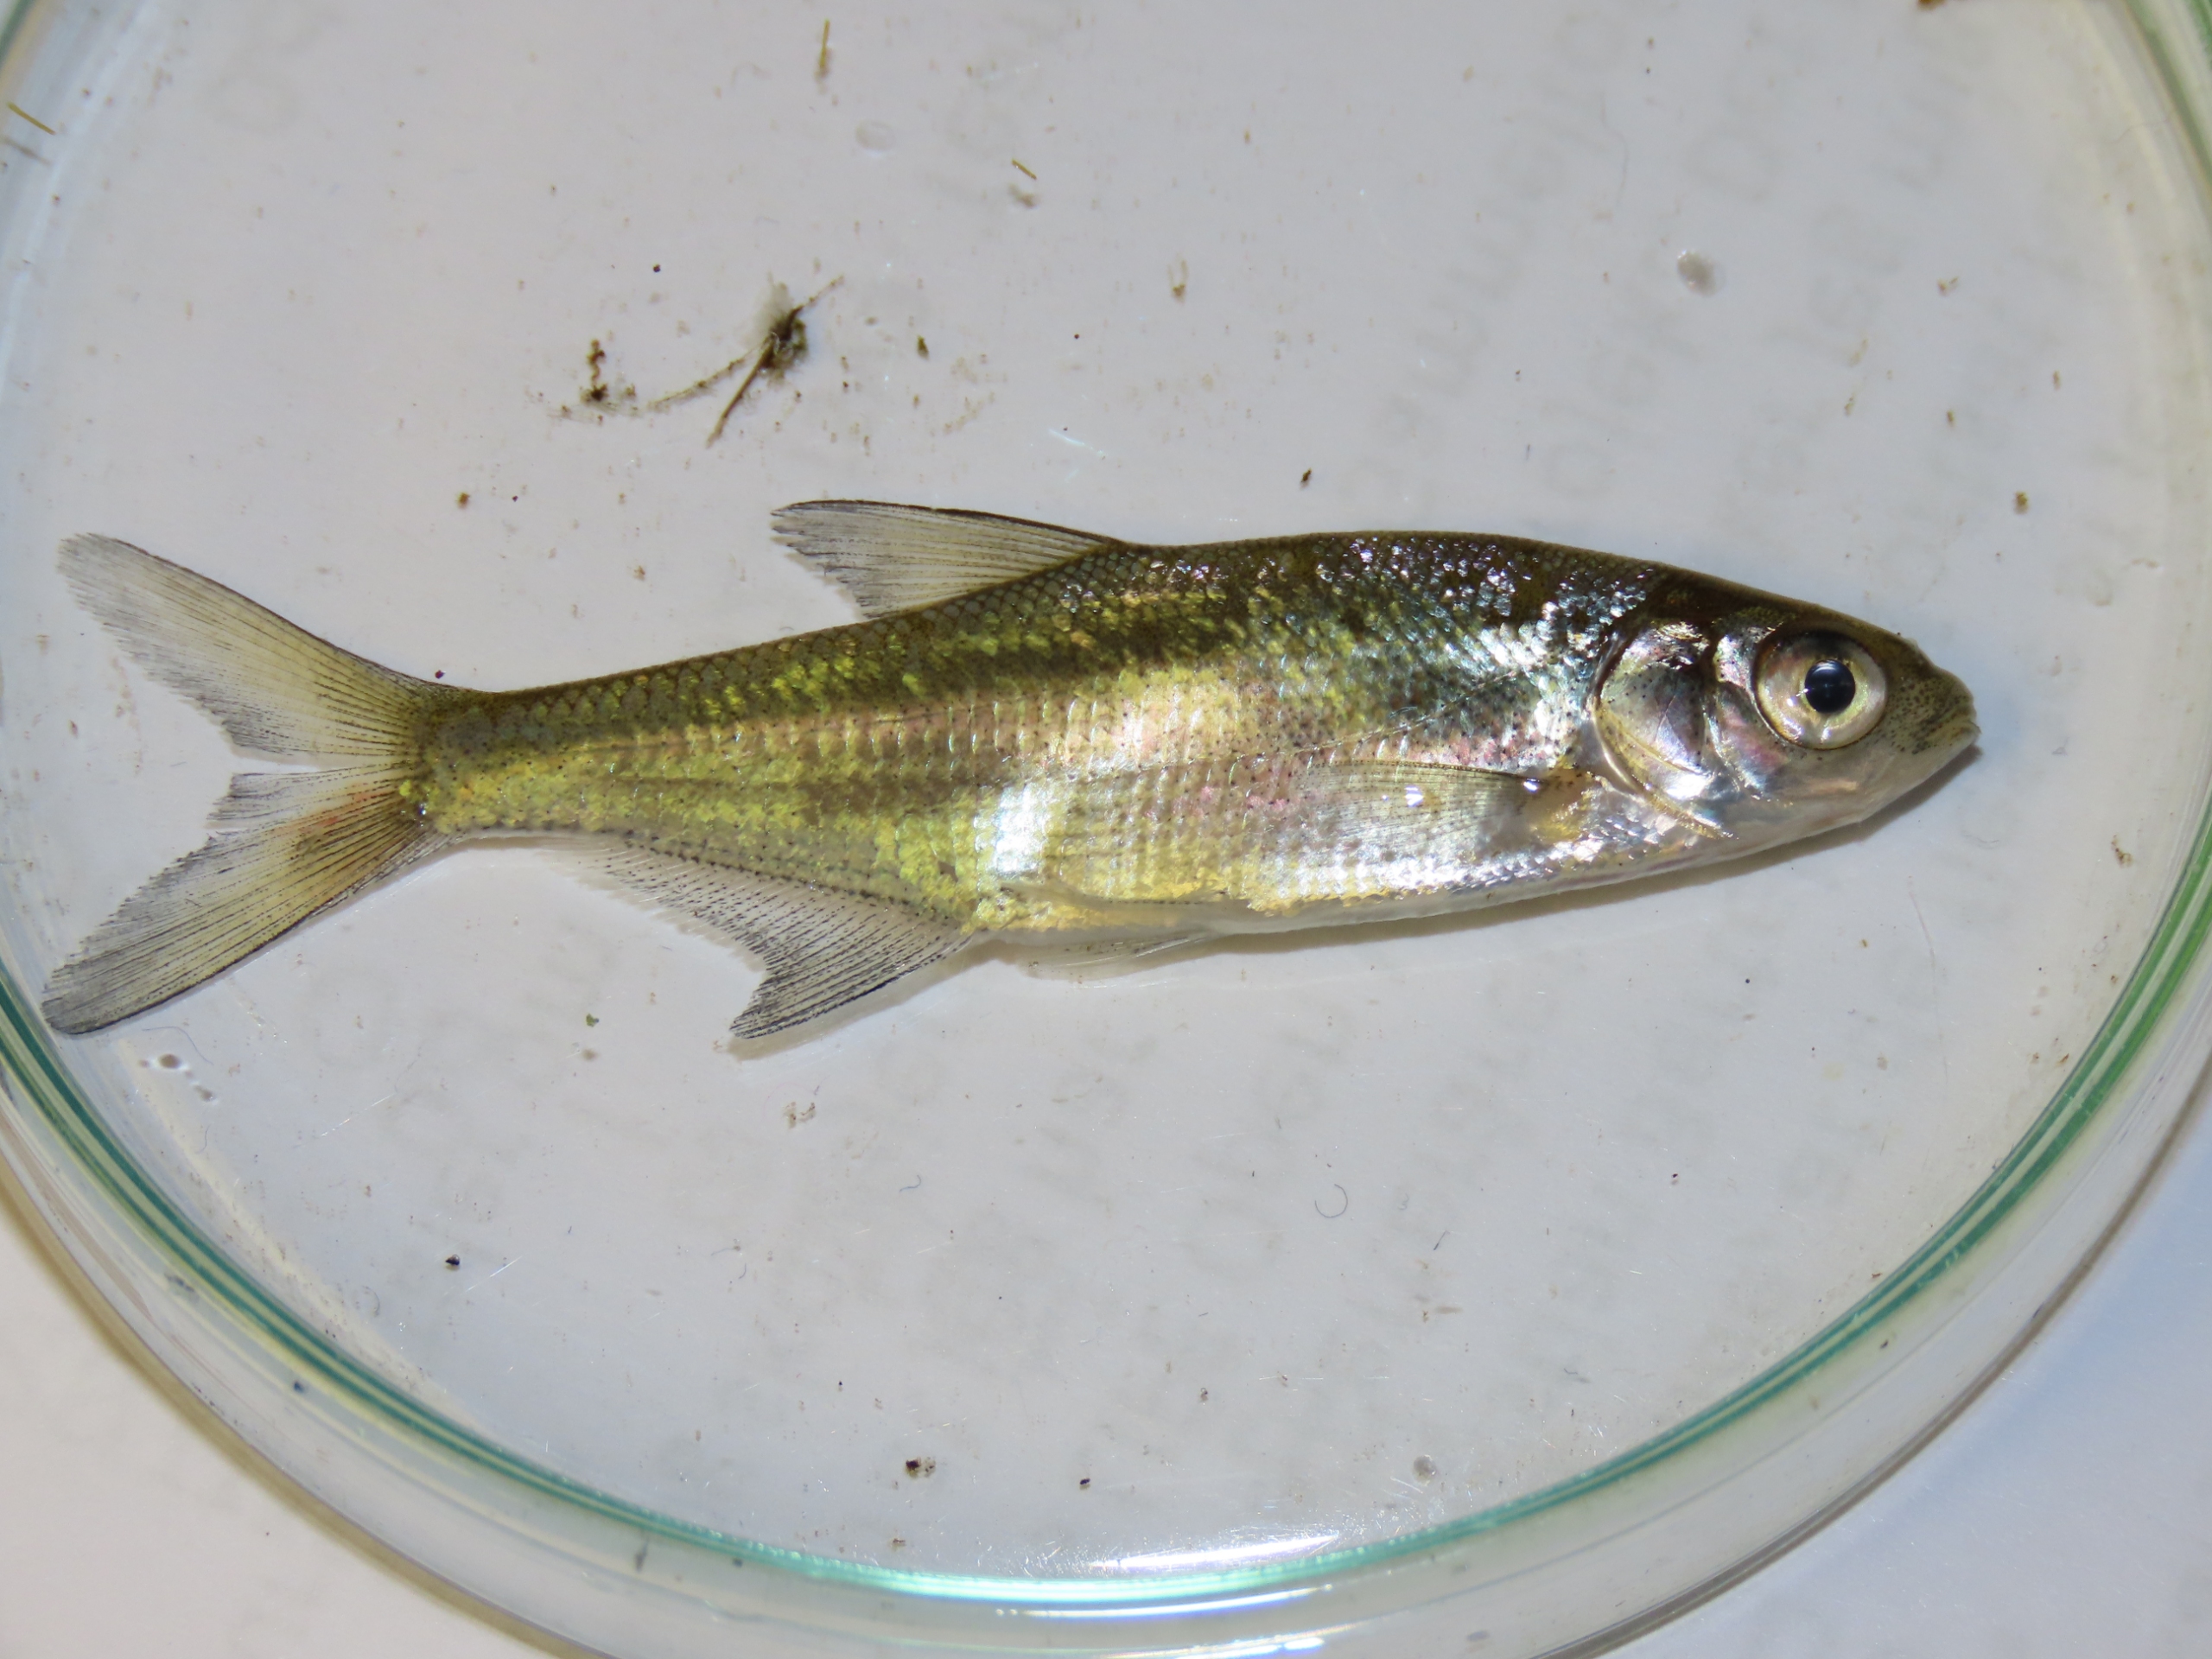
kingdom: Animalia
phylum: Chordata
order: Cypriniformes
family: Cyprinidae
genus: Abramis
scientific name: Abramis brama
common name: Brasen
